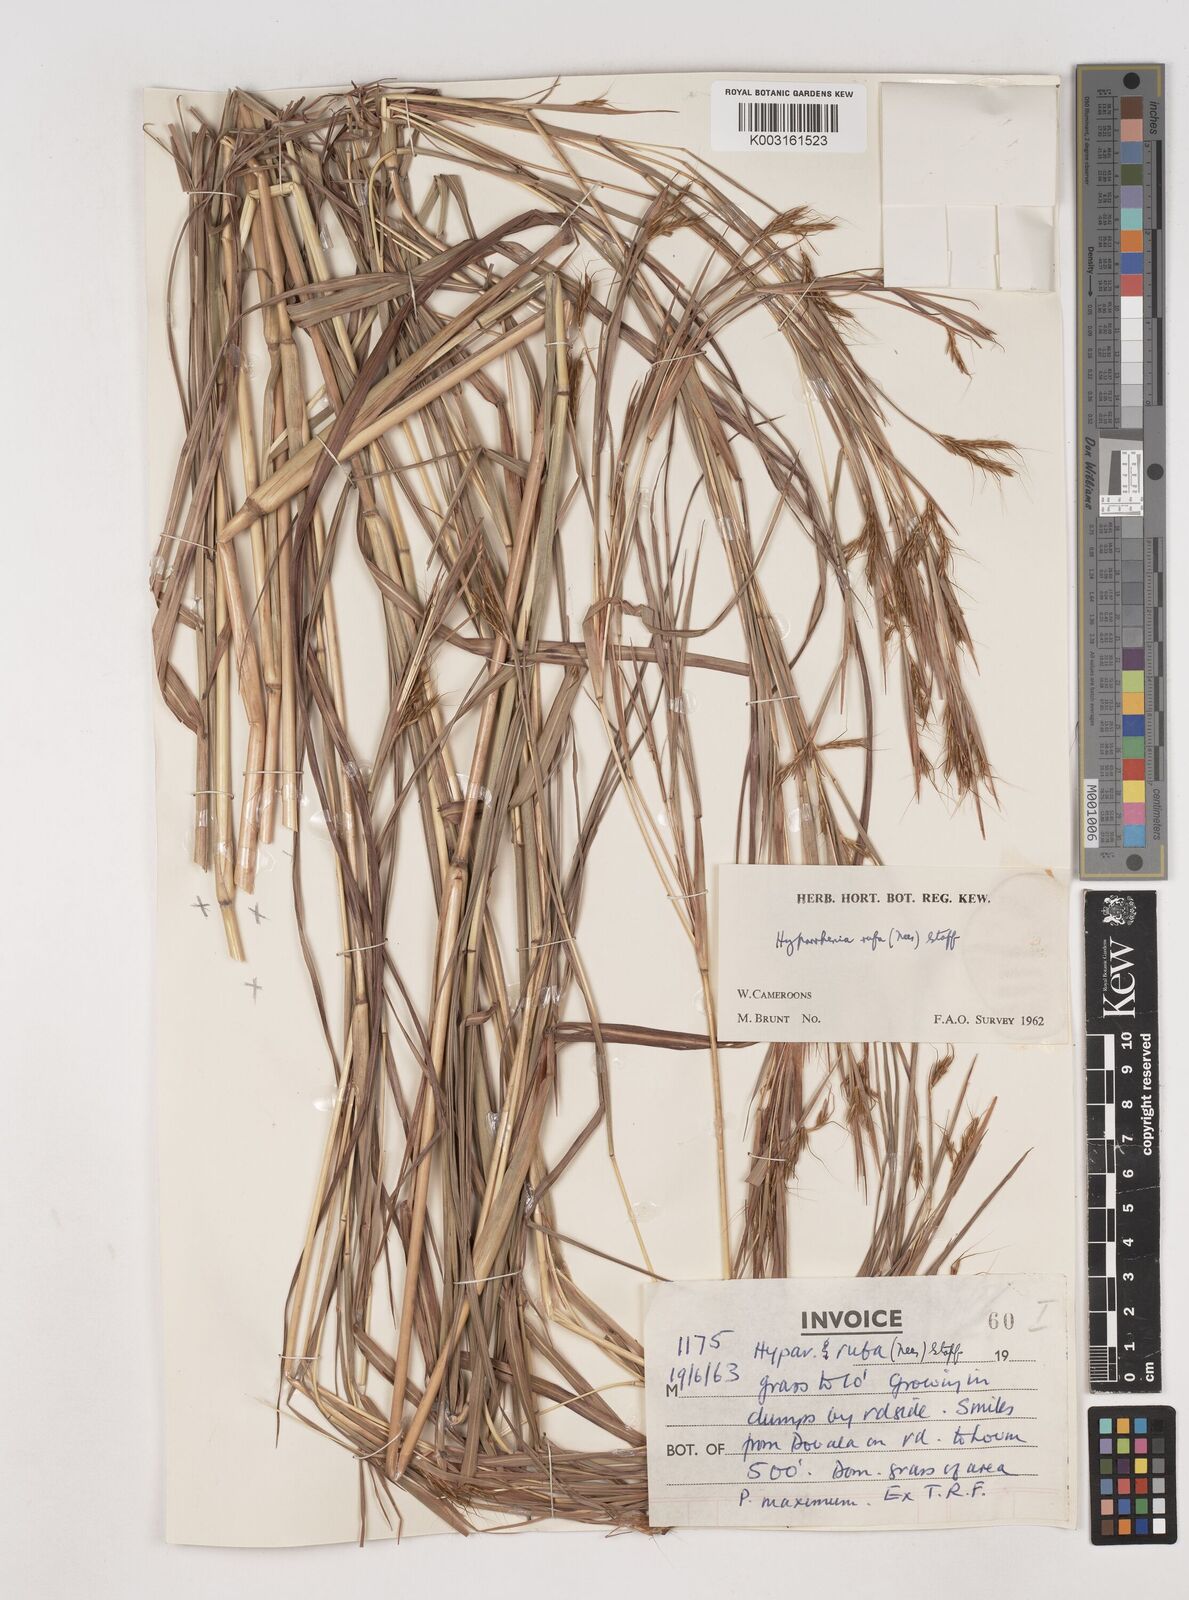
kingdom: Plantae
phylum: Tracheophyta
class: Liliopsida
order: Poales
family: Poaceae
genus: Hyparrhenia
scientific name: Hyparrhenia rufa
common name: Jaraguagrass
